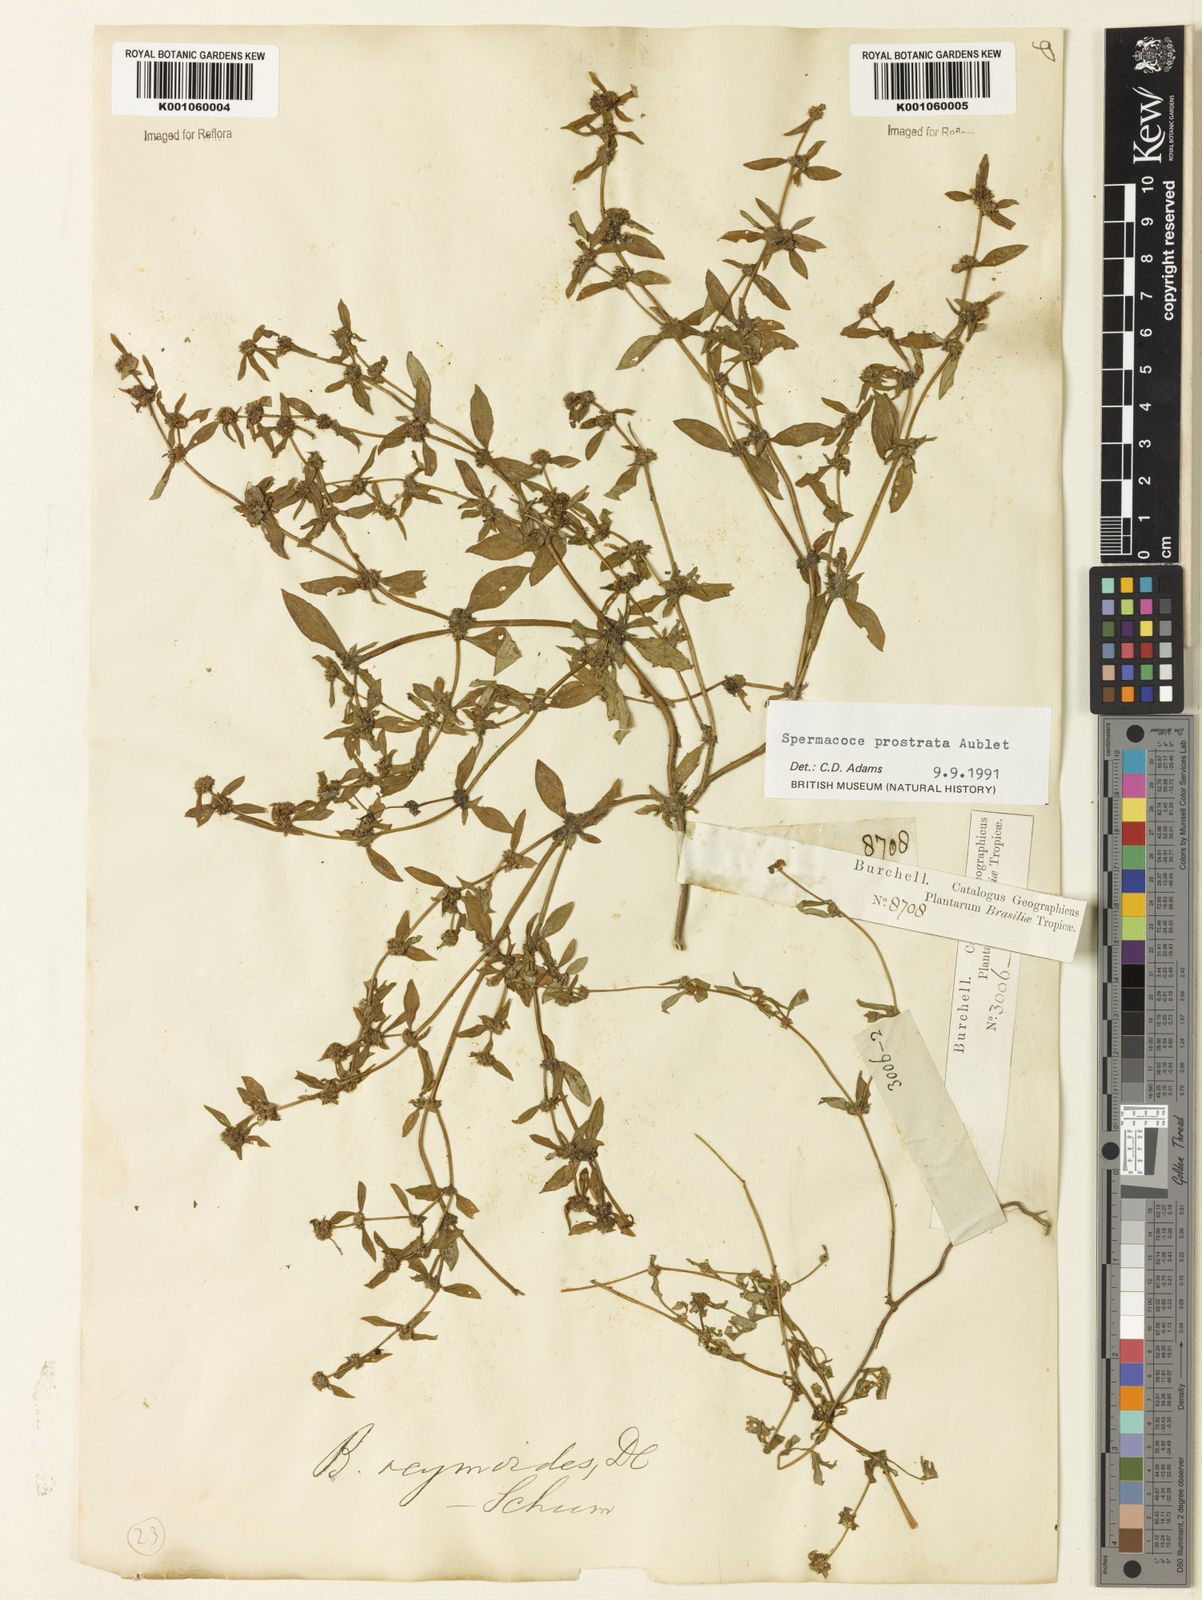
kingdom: Plantae
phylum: Tracheophyta
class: Magnoliopsida
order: Gentianales
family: Rubiaceae
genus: Spermacoce
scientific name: Spermacoce
